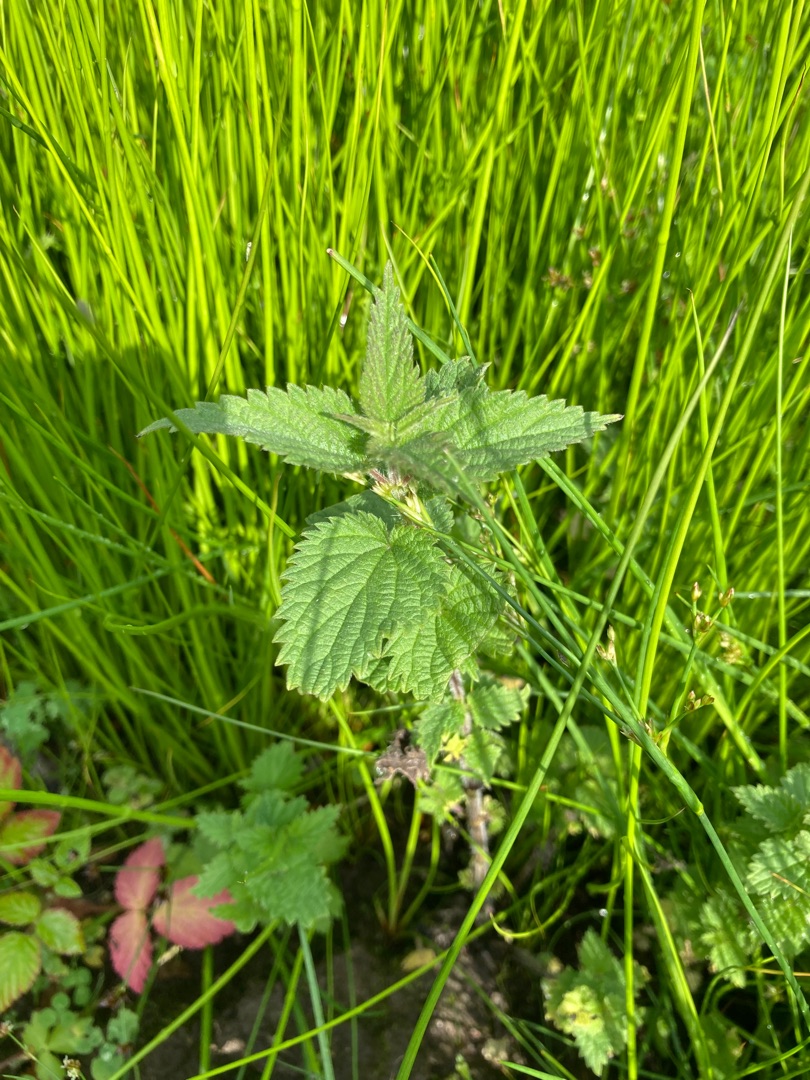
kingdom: Plantae
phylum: Tracheophyta
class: Magnoliopsida
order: Rosales
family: Urticaceae
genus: Urtica
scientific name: Urtica dioica
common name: Stor nælde
